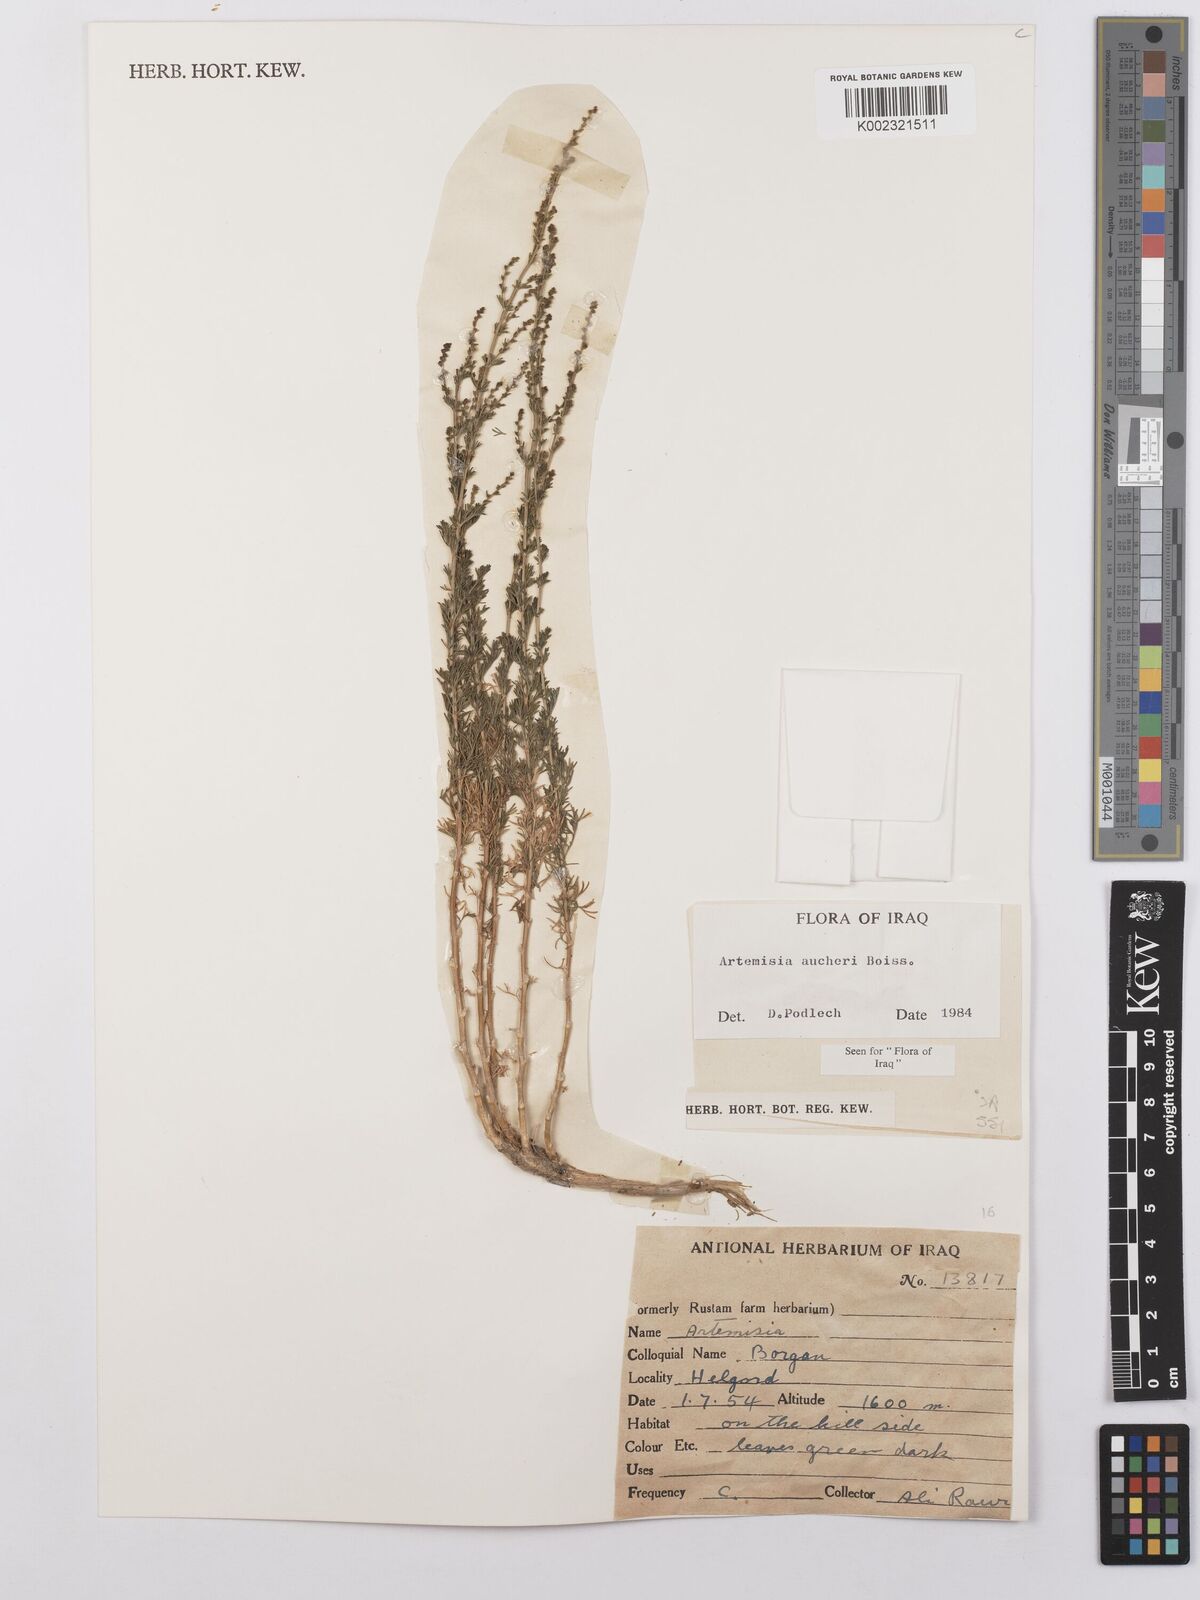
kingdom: Plantae
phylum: Tracheophyta
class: Magnoliopsida
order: Asterales
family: Asteraceae
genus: Artemisia
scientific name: Artemisia aucheri
